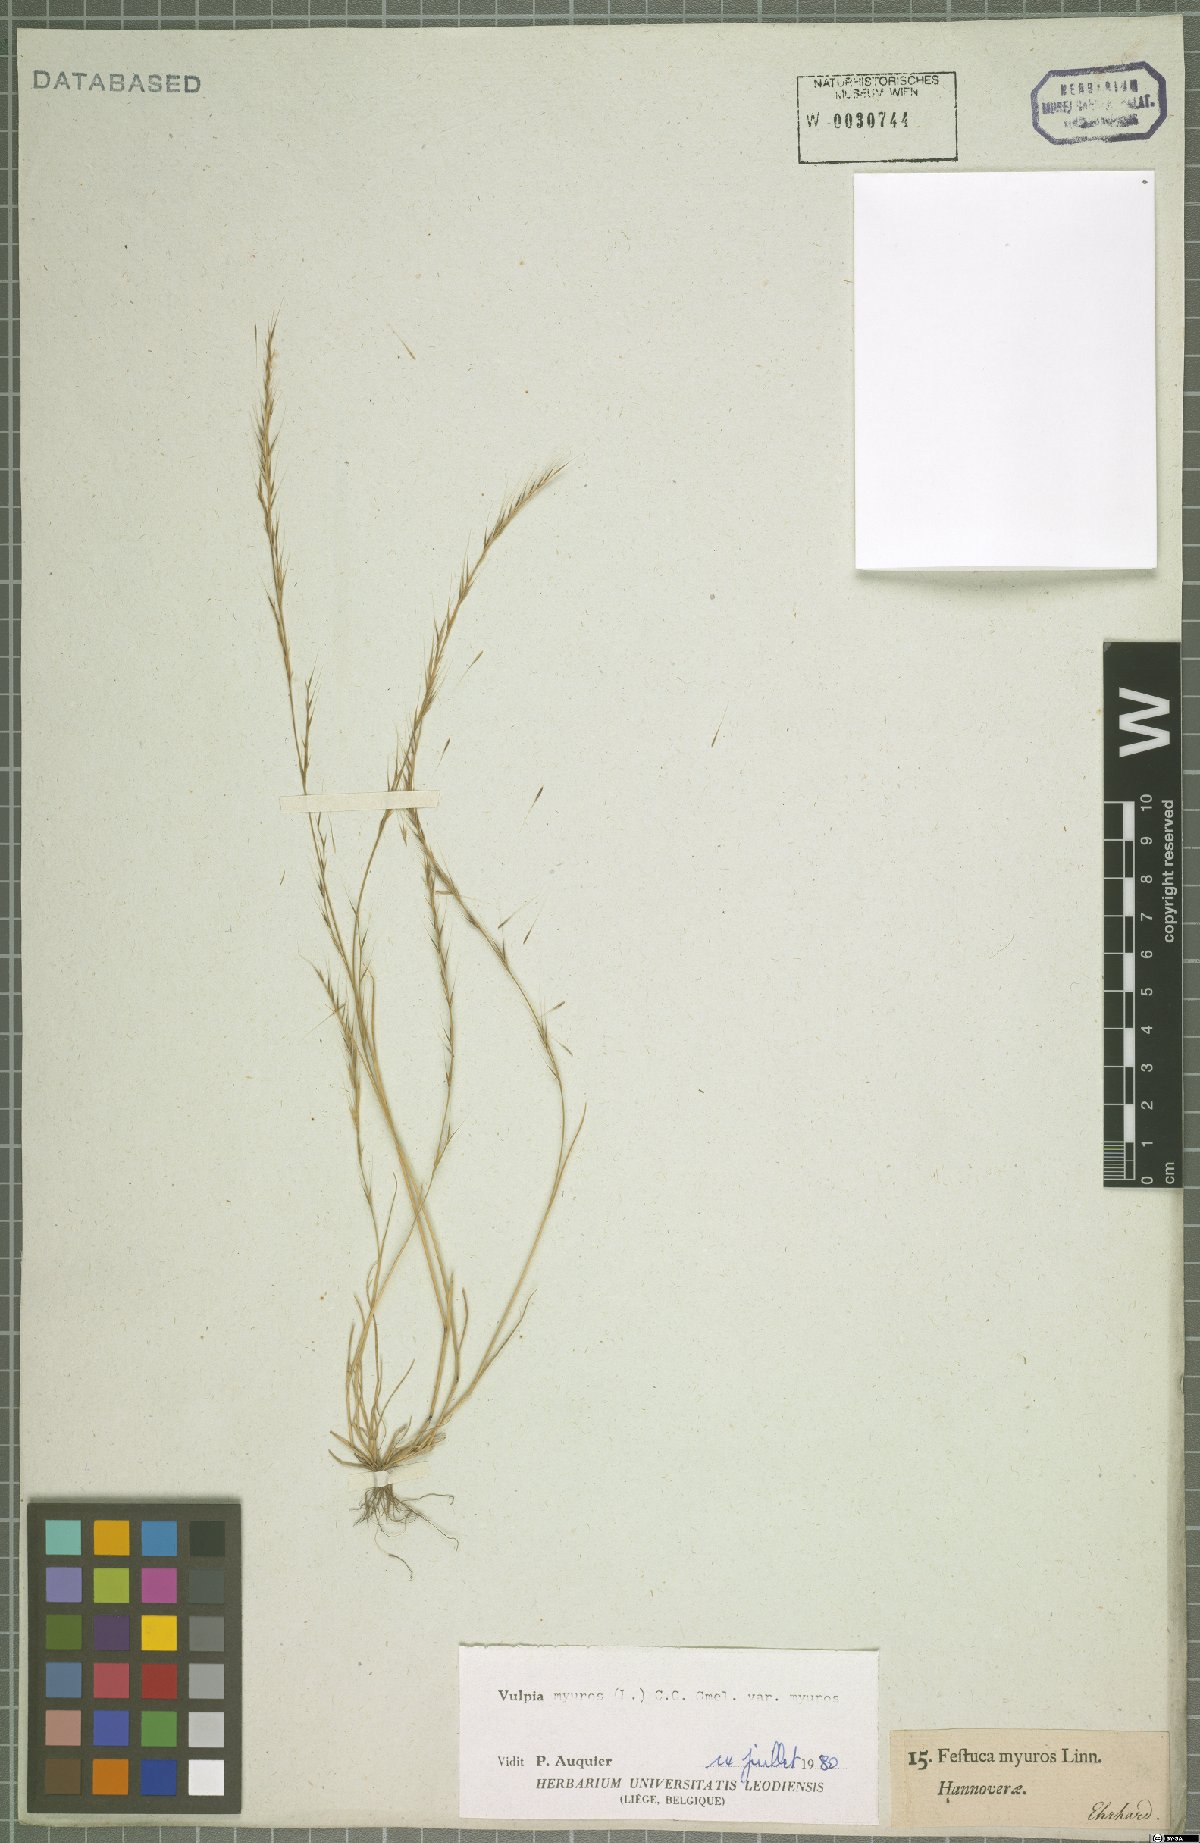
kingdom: Plantae
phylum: Tracheophyta
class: Liliopsida
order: Poales
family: Poaceae
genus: Festuca
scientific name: Festuca myuros
